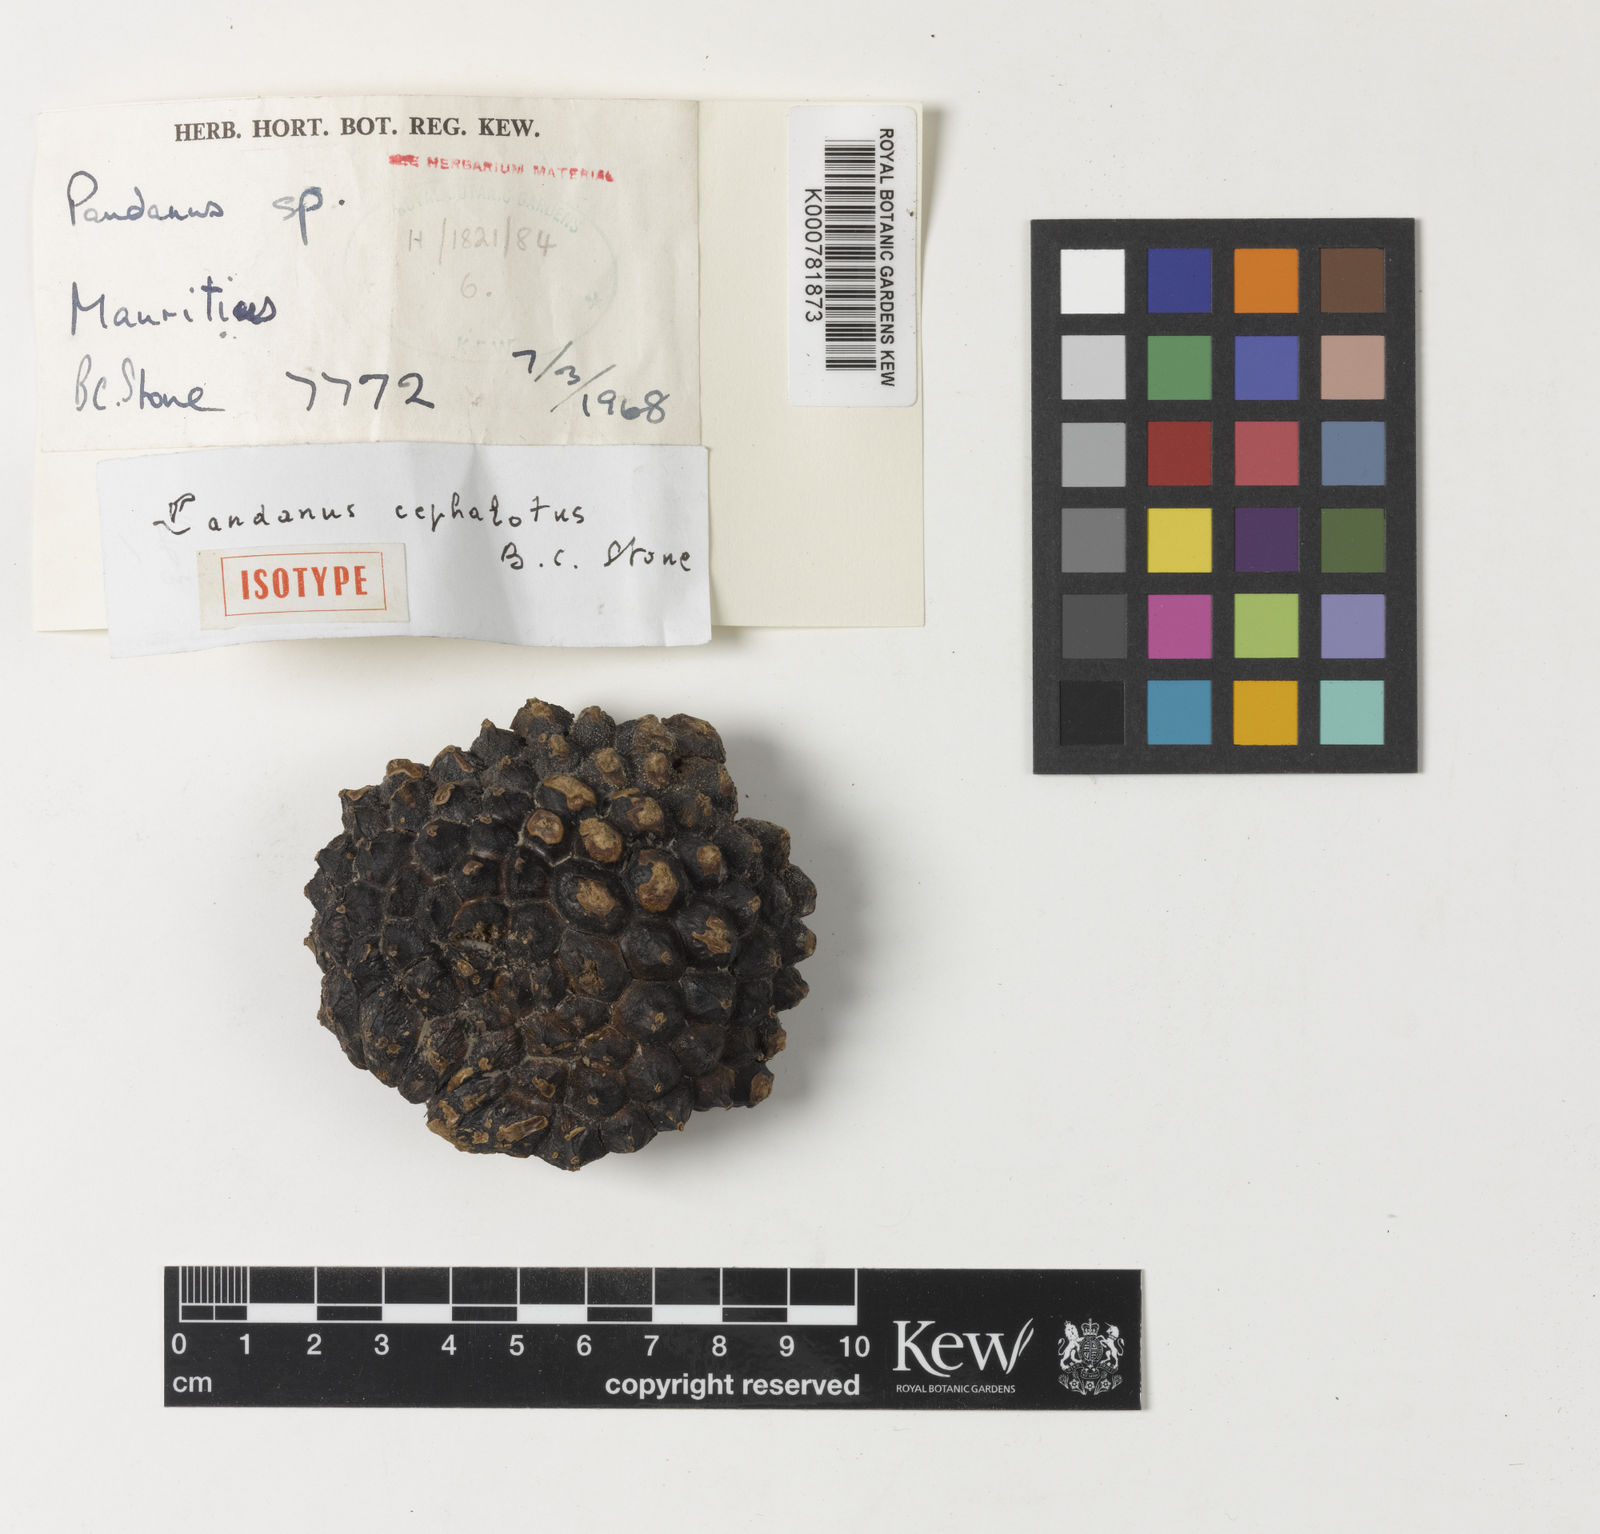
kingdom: Plantae
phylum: Tracheophyta
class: Liliopsida
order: Pandanales
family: Pandanaceae
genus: Pandanus
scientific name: Pandanus
